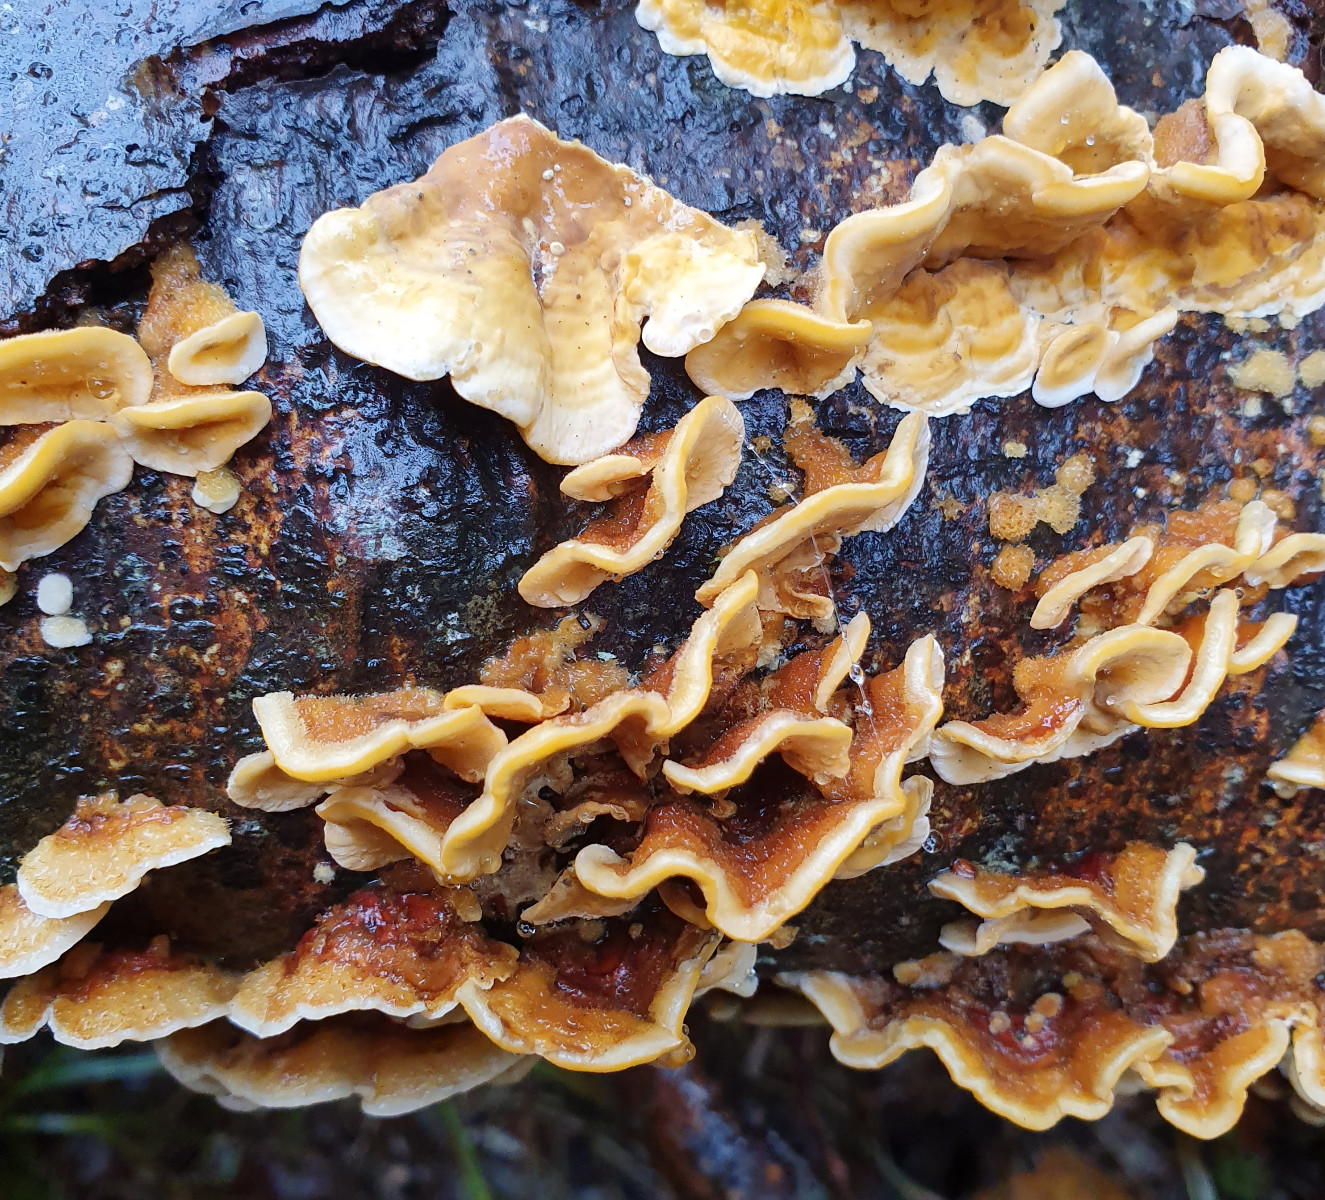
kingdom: Fungi
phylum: Basidiomycota
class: Agaricomycetes
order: Russulales
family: Stereaceae
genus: Stereum
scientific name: Stereum hirsutum
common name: håret lædersvamp
